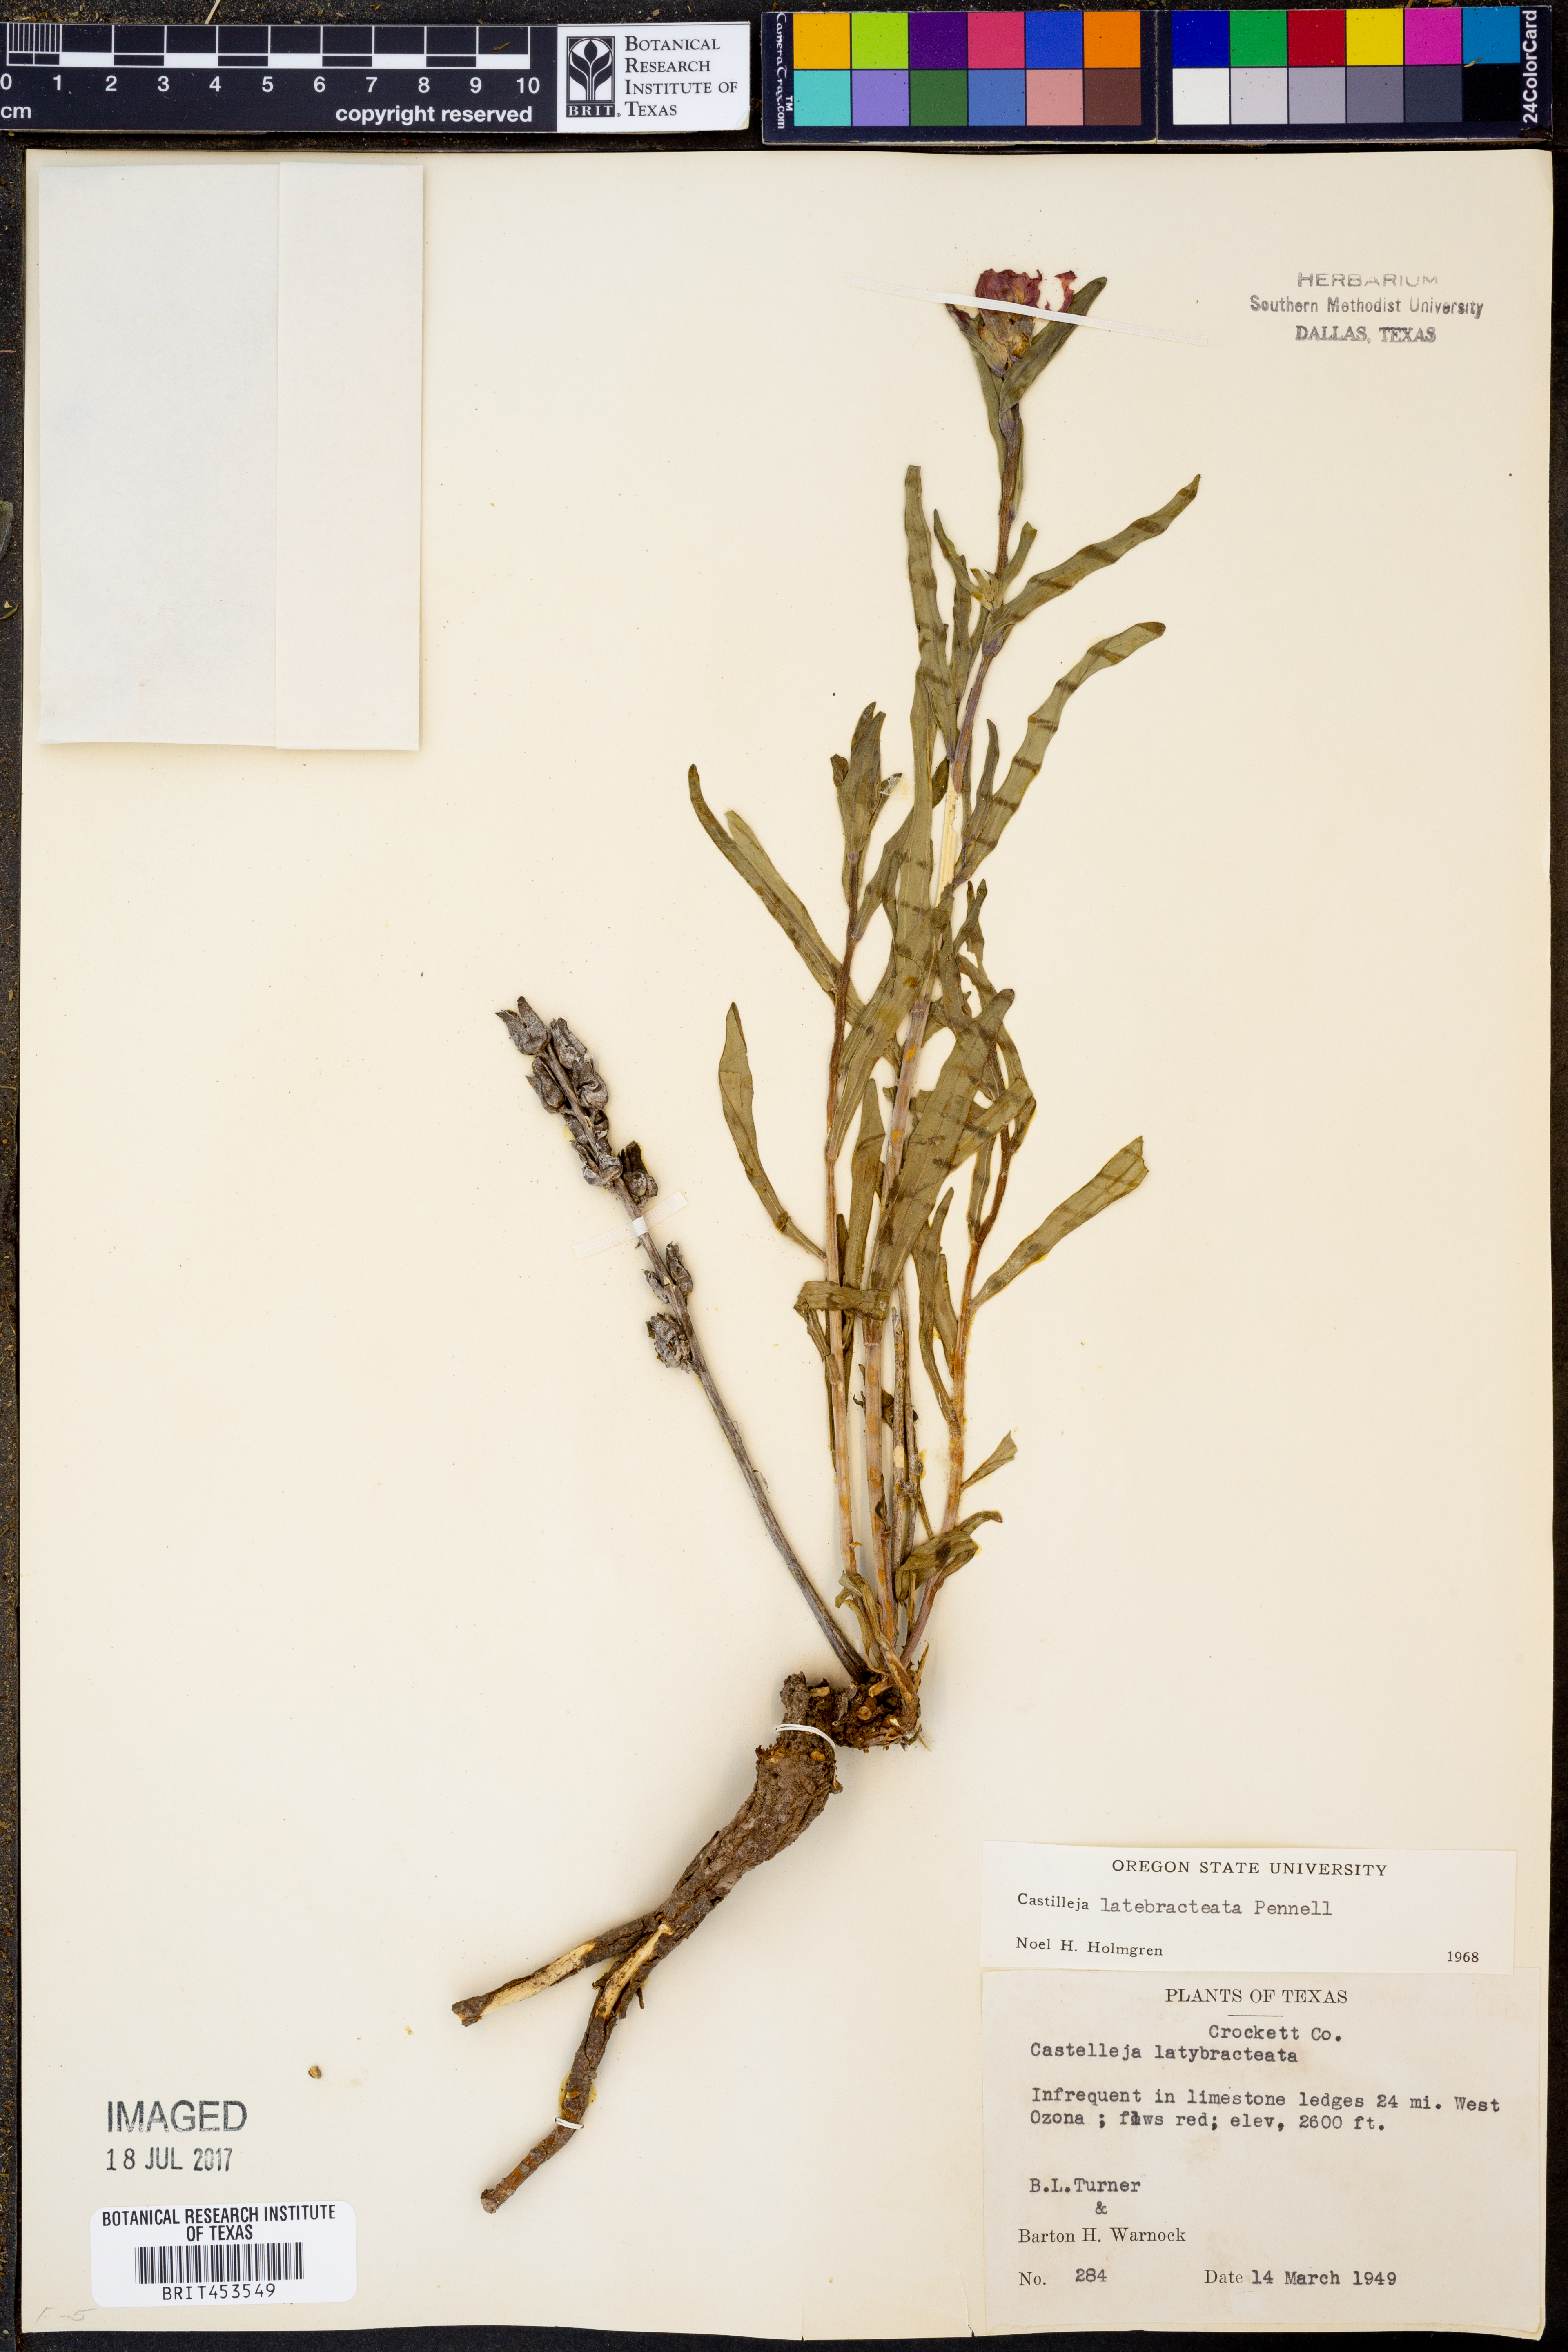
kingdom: Plantae
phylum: Tracheophyta
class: Magnoliopsida
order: Lamiales
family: Orobanchaceae
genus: Castilleja
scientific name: Castilleja rigida
